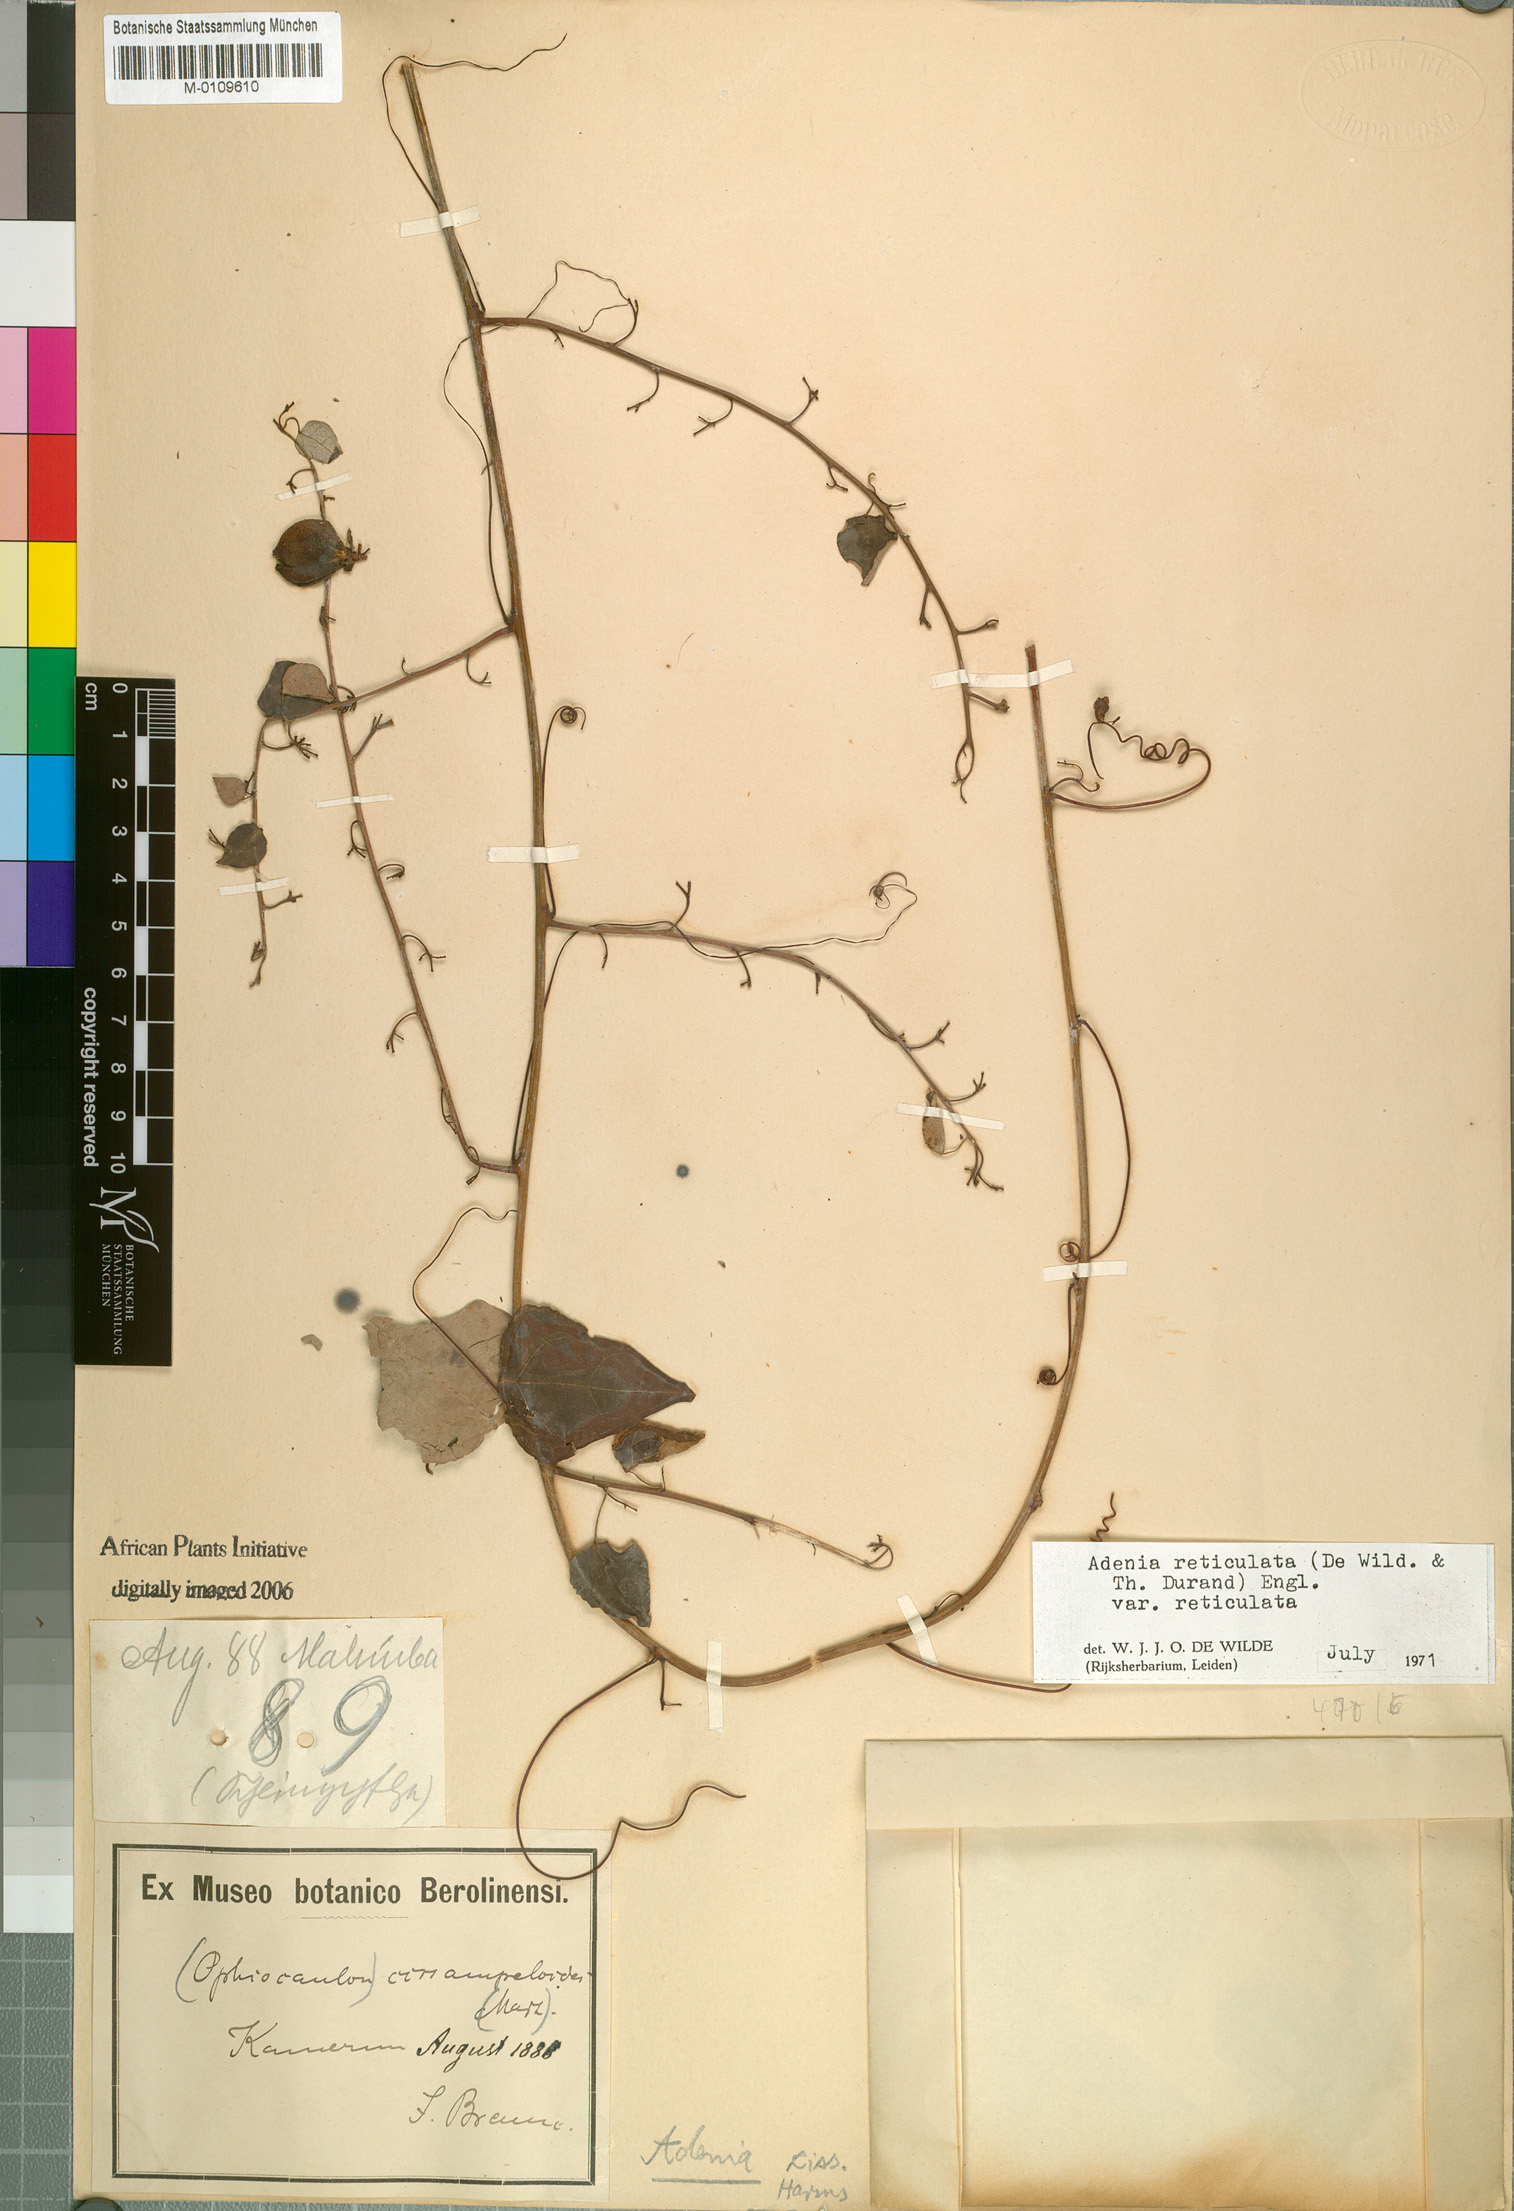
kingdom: Plantae
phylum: Tracheophyta
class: Magnoliopsida
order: Malpighiales
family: Passifloraceae
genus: Adenia
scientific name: Adenia cissampeloides
